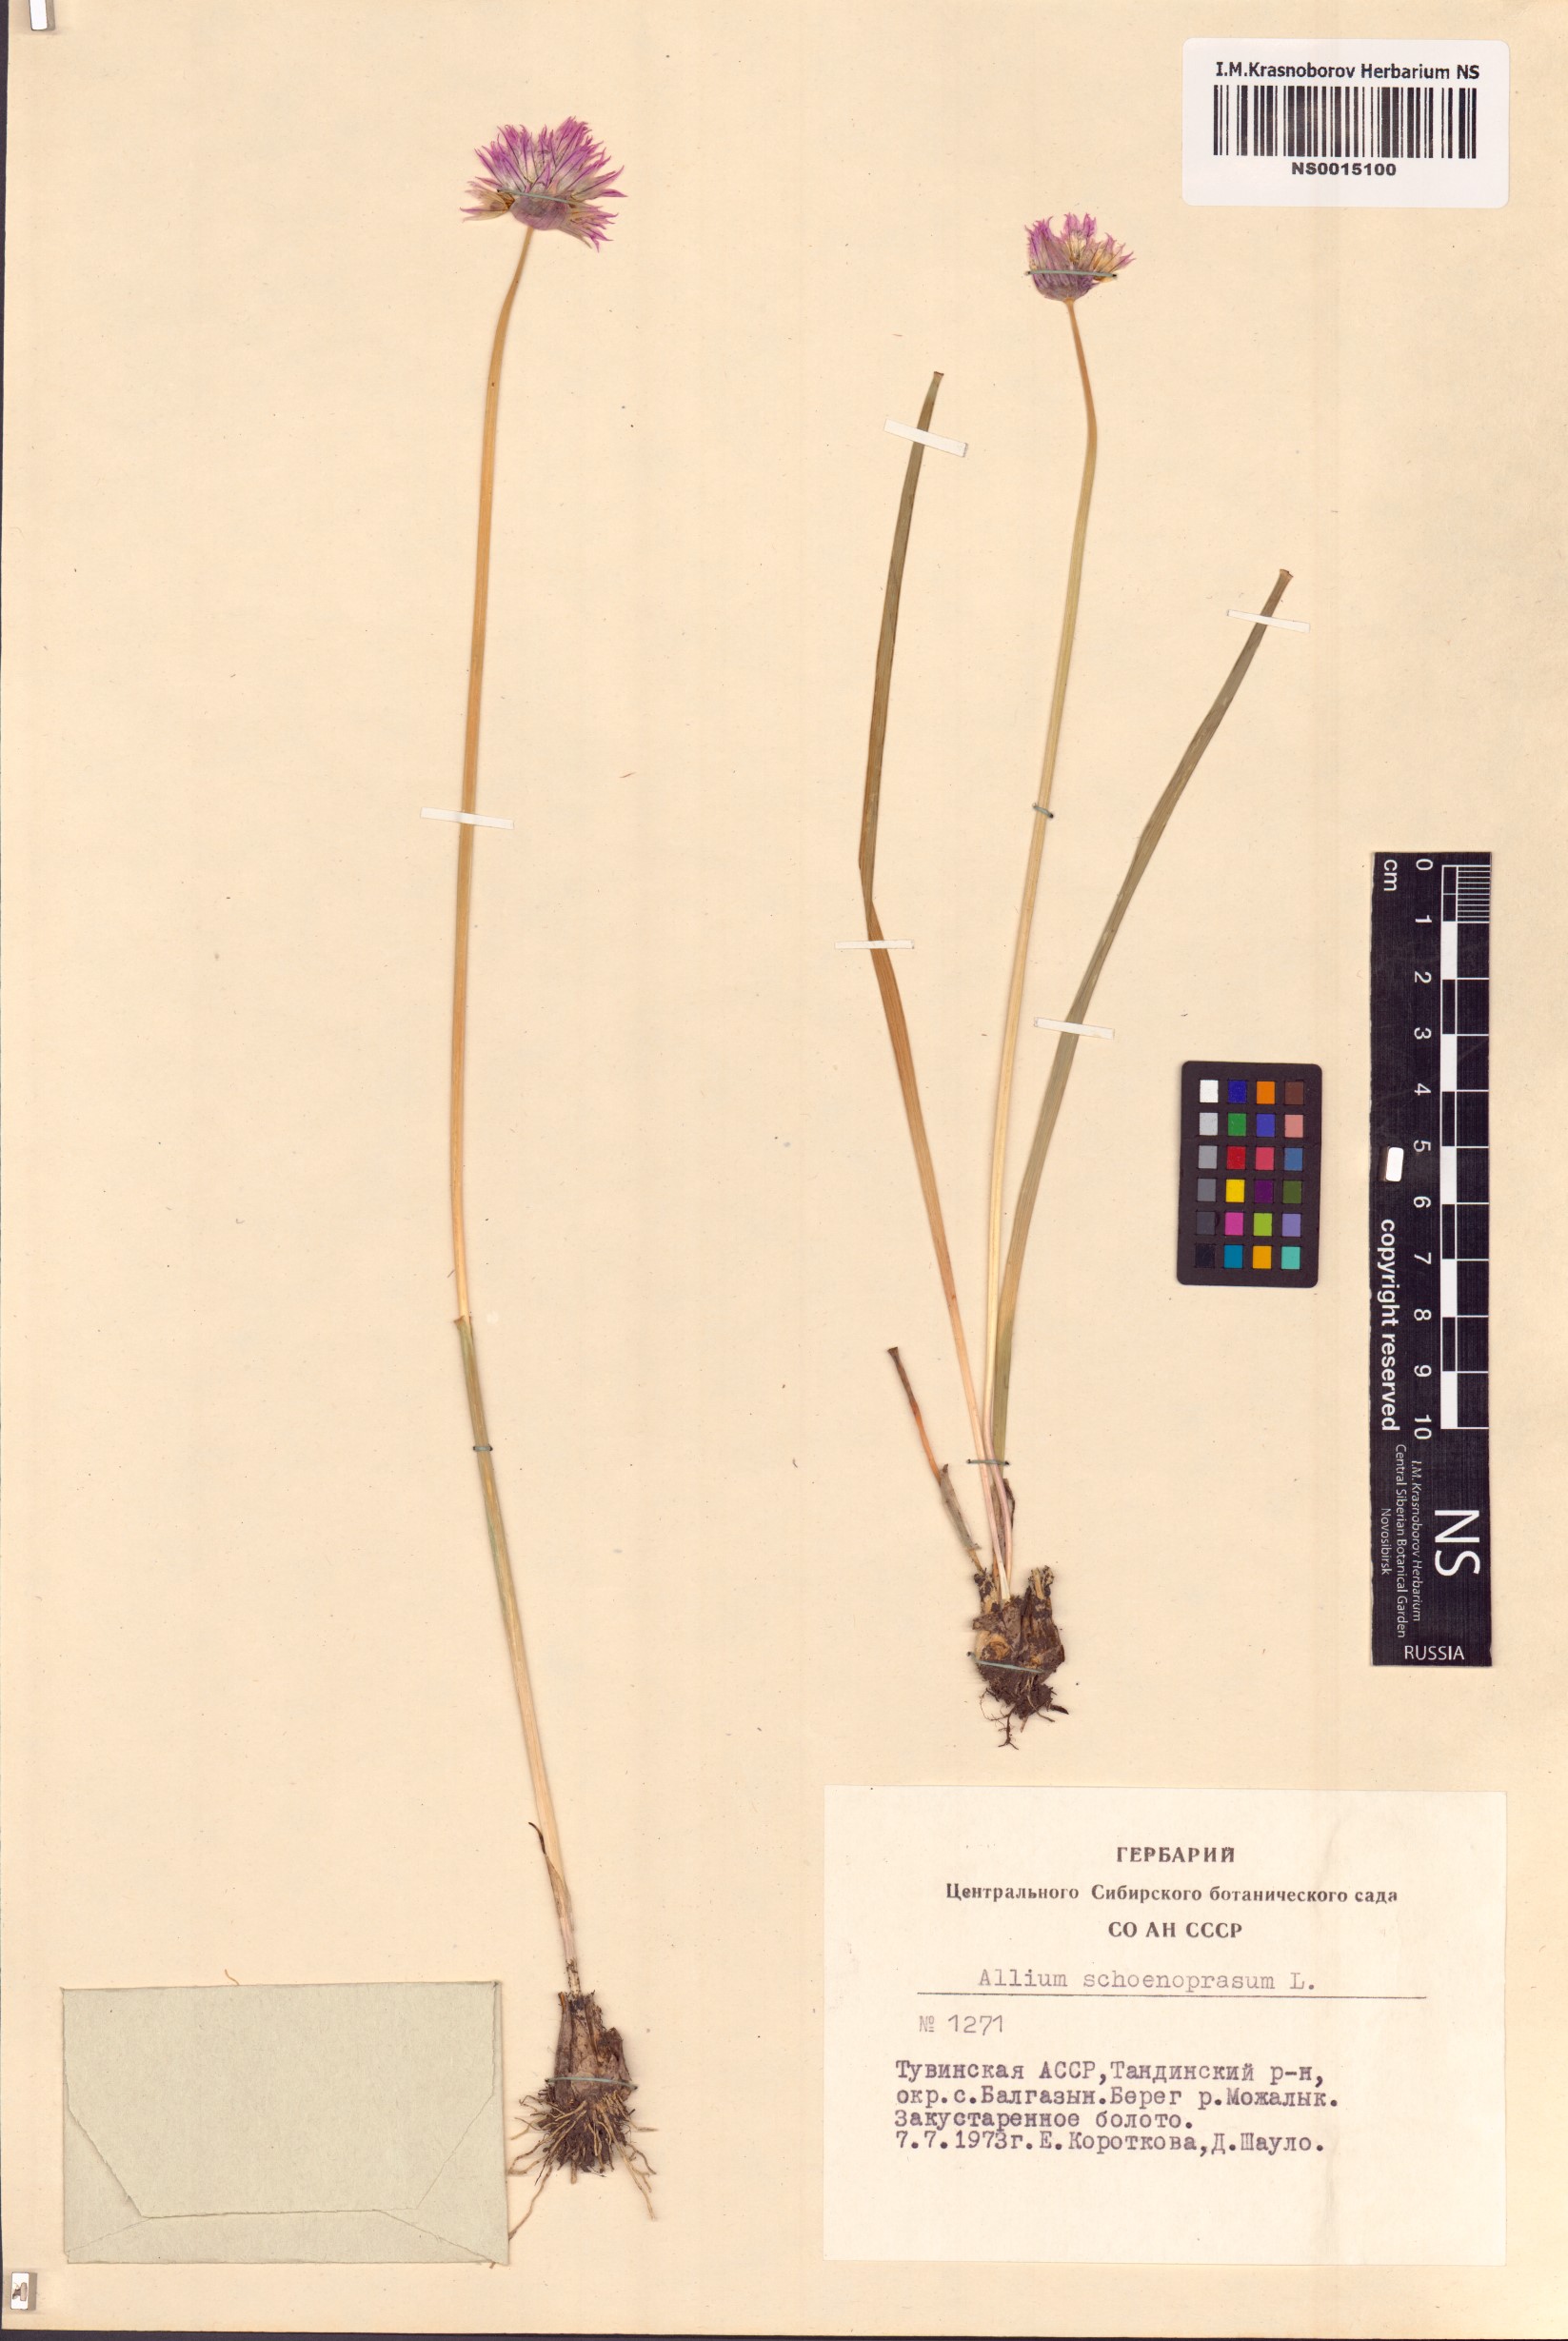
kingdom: Plantae
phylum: Tracheophyta
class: Liliopsida
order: Asparagales
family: Amaryllidaceae
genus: Allium
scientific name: Allium schoenoprasum
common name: Chives
